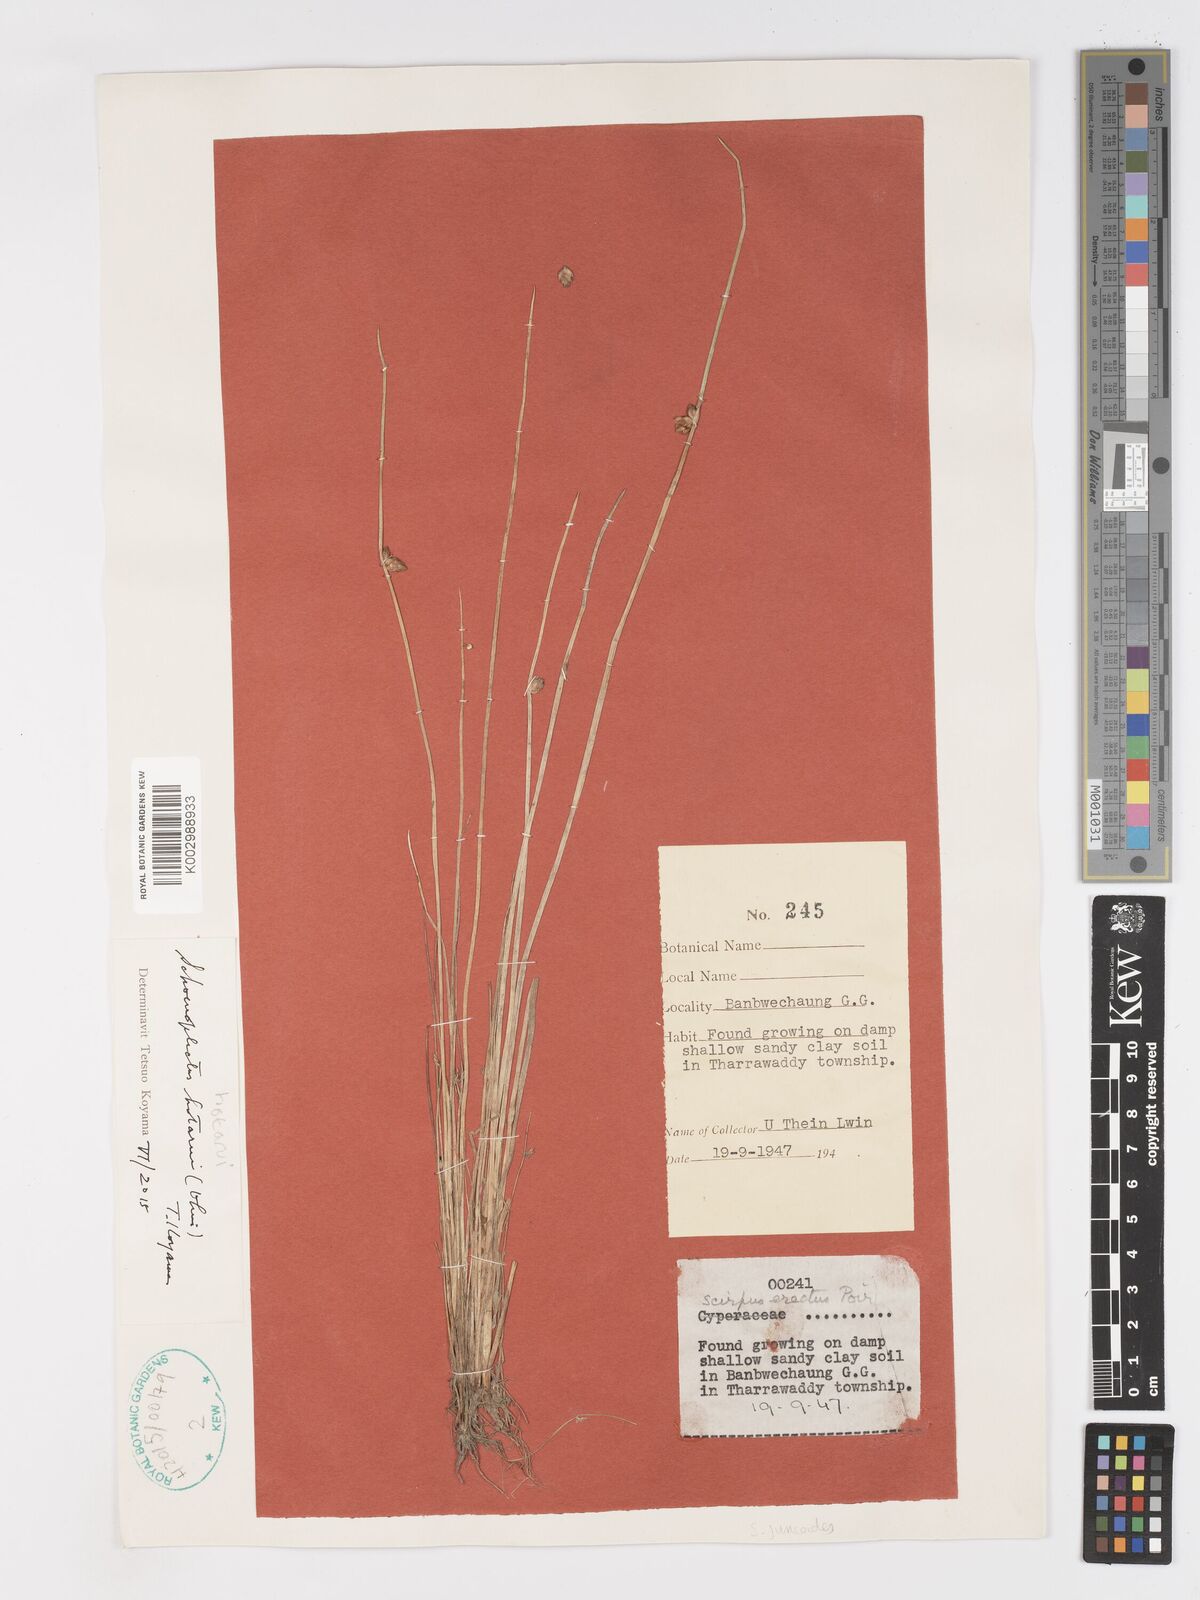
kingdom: Plantae
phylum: Tracheophyta
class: Liliopsida
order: Poales
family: Cyperaceae
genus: Schoenoplectiella
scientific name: Schoenoplectiella hotarui
